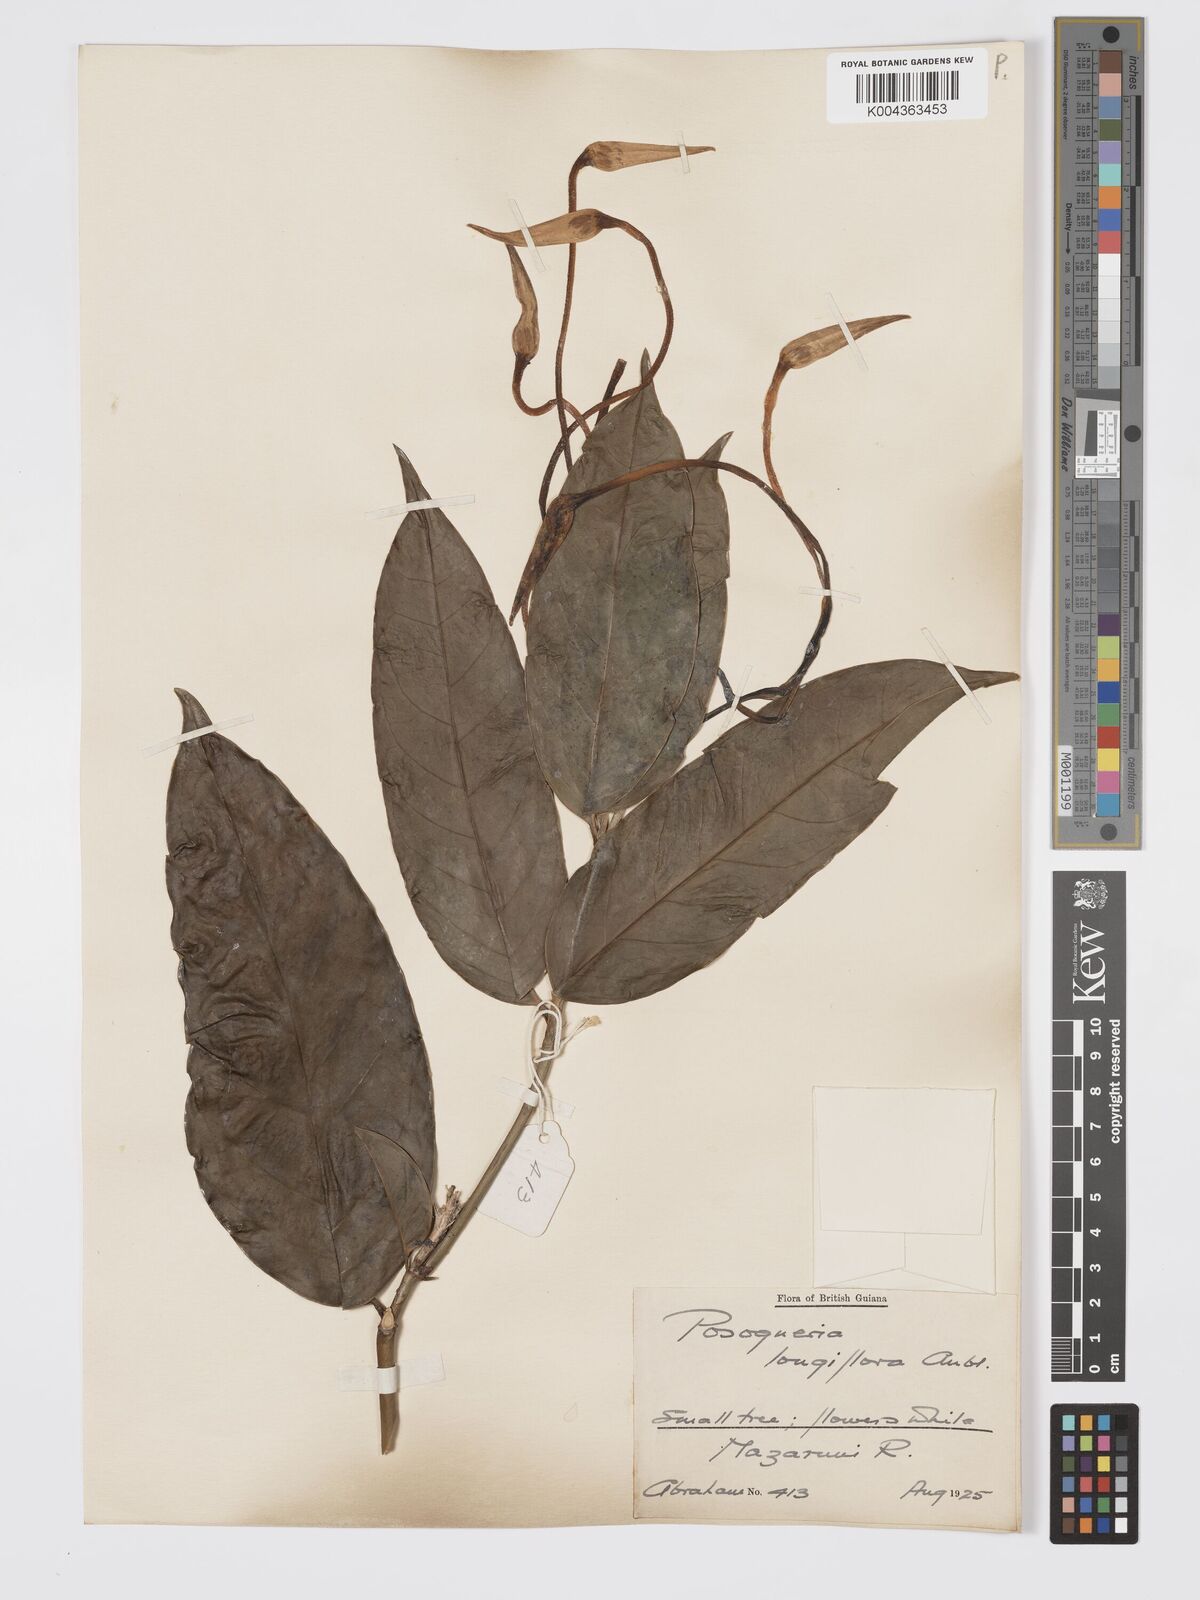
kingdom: Plantae
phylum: Tracheophyta
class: Magnoliopsida
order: Gentianales
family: Rubiaceae
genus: Posoqueria
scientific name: Posoqueria
